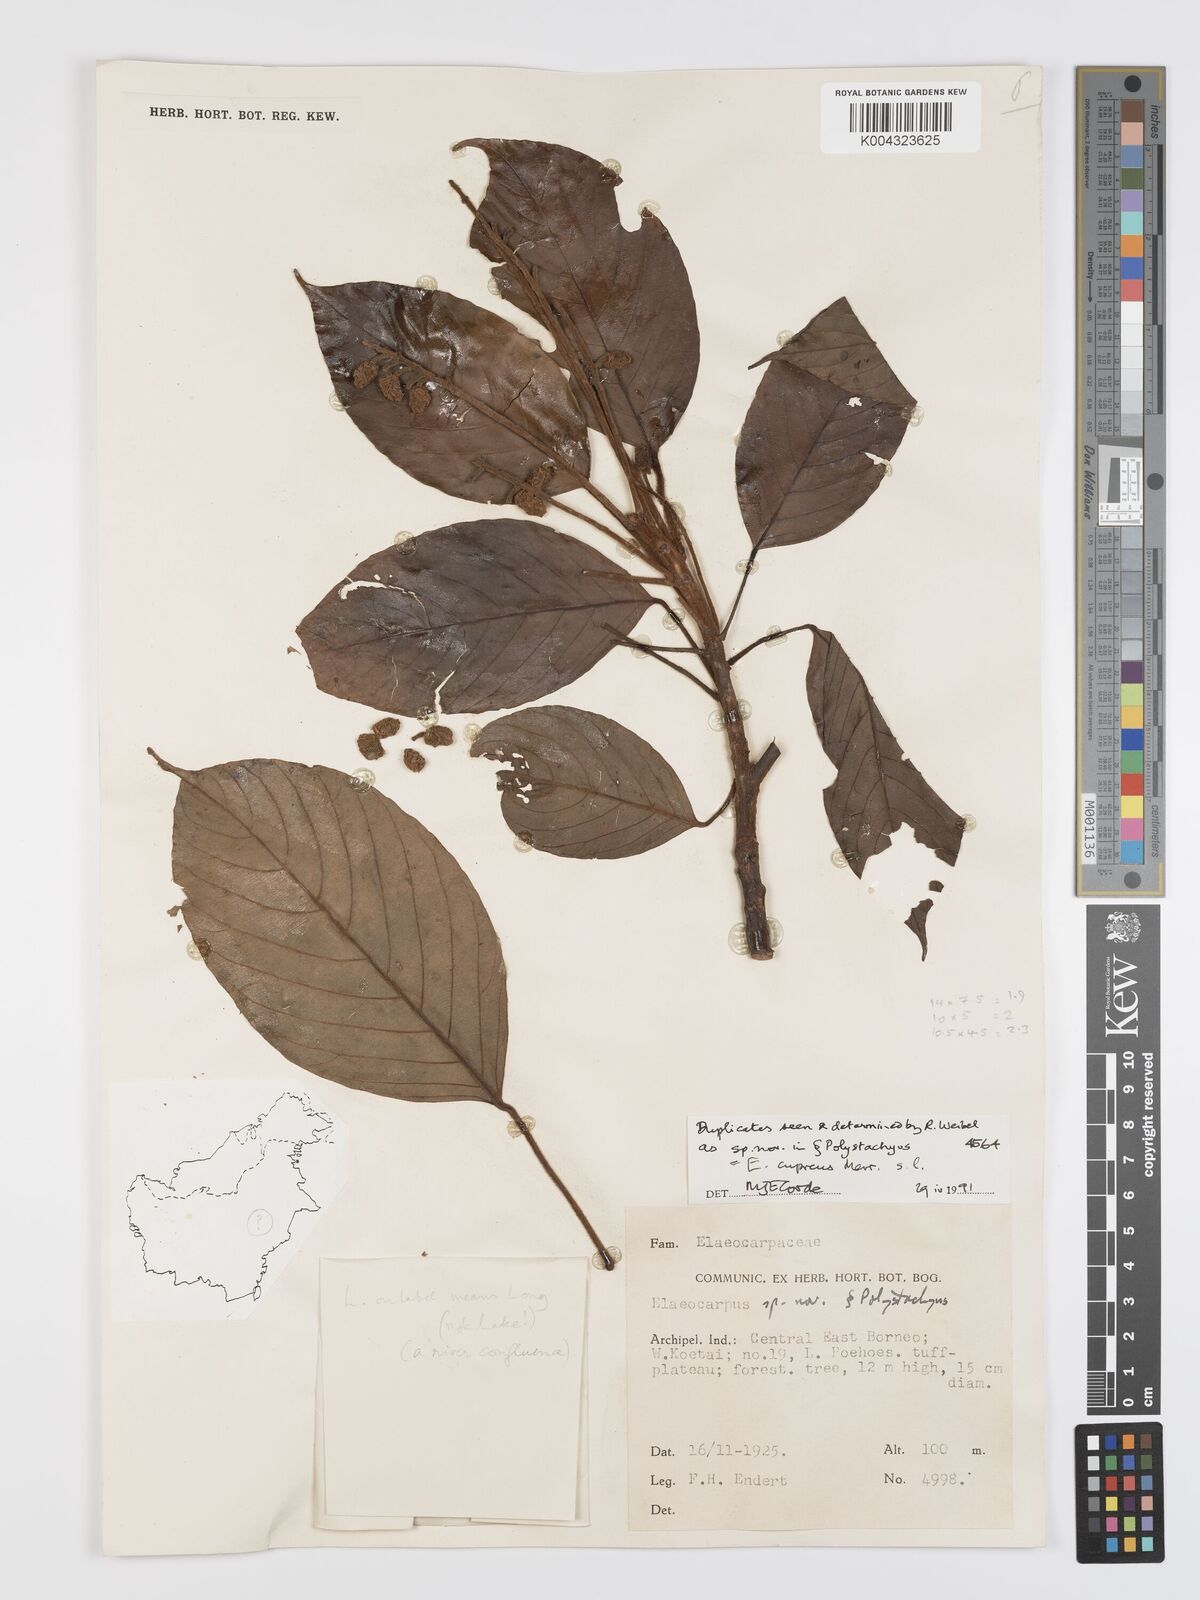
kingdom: Plantae
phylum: Tracheophyta
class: Magnoliopsida
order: Oxalidales
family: Elaeocarpaceae
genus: Elaeocarpus
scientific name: Elaeocarpus cupreus
